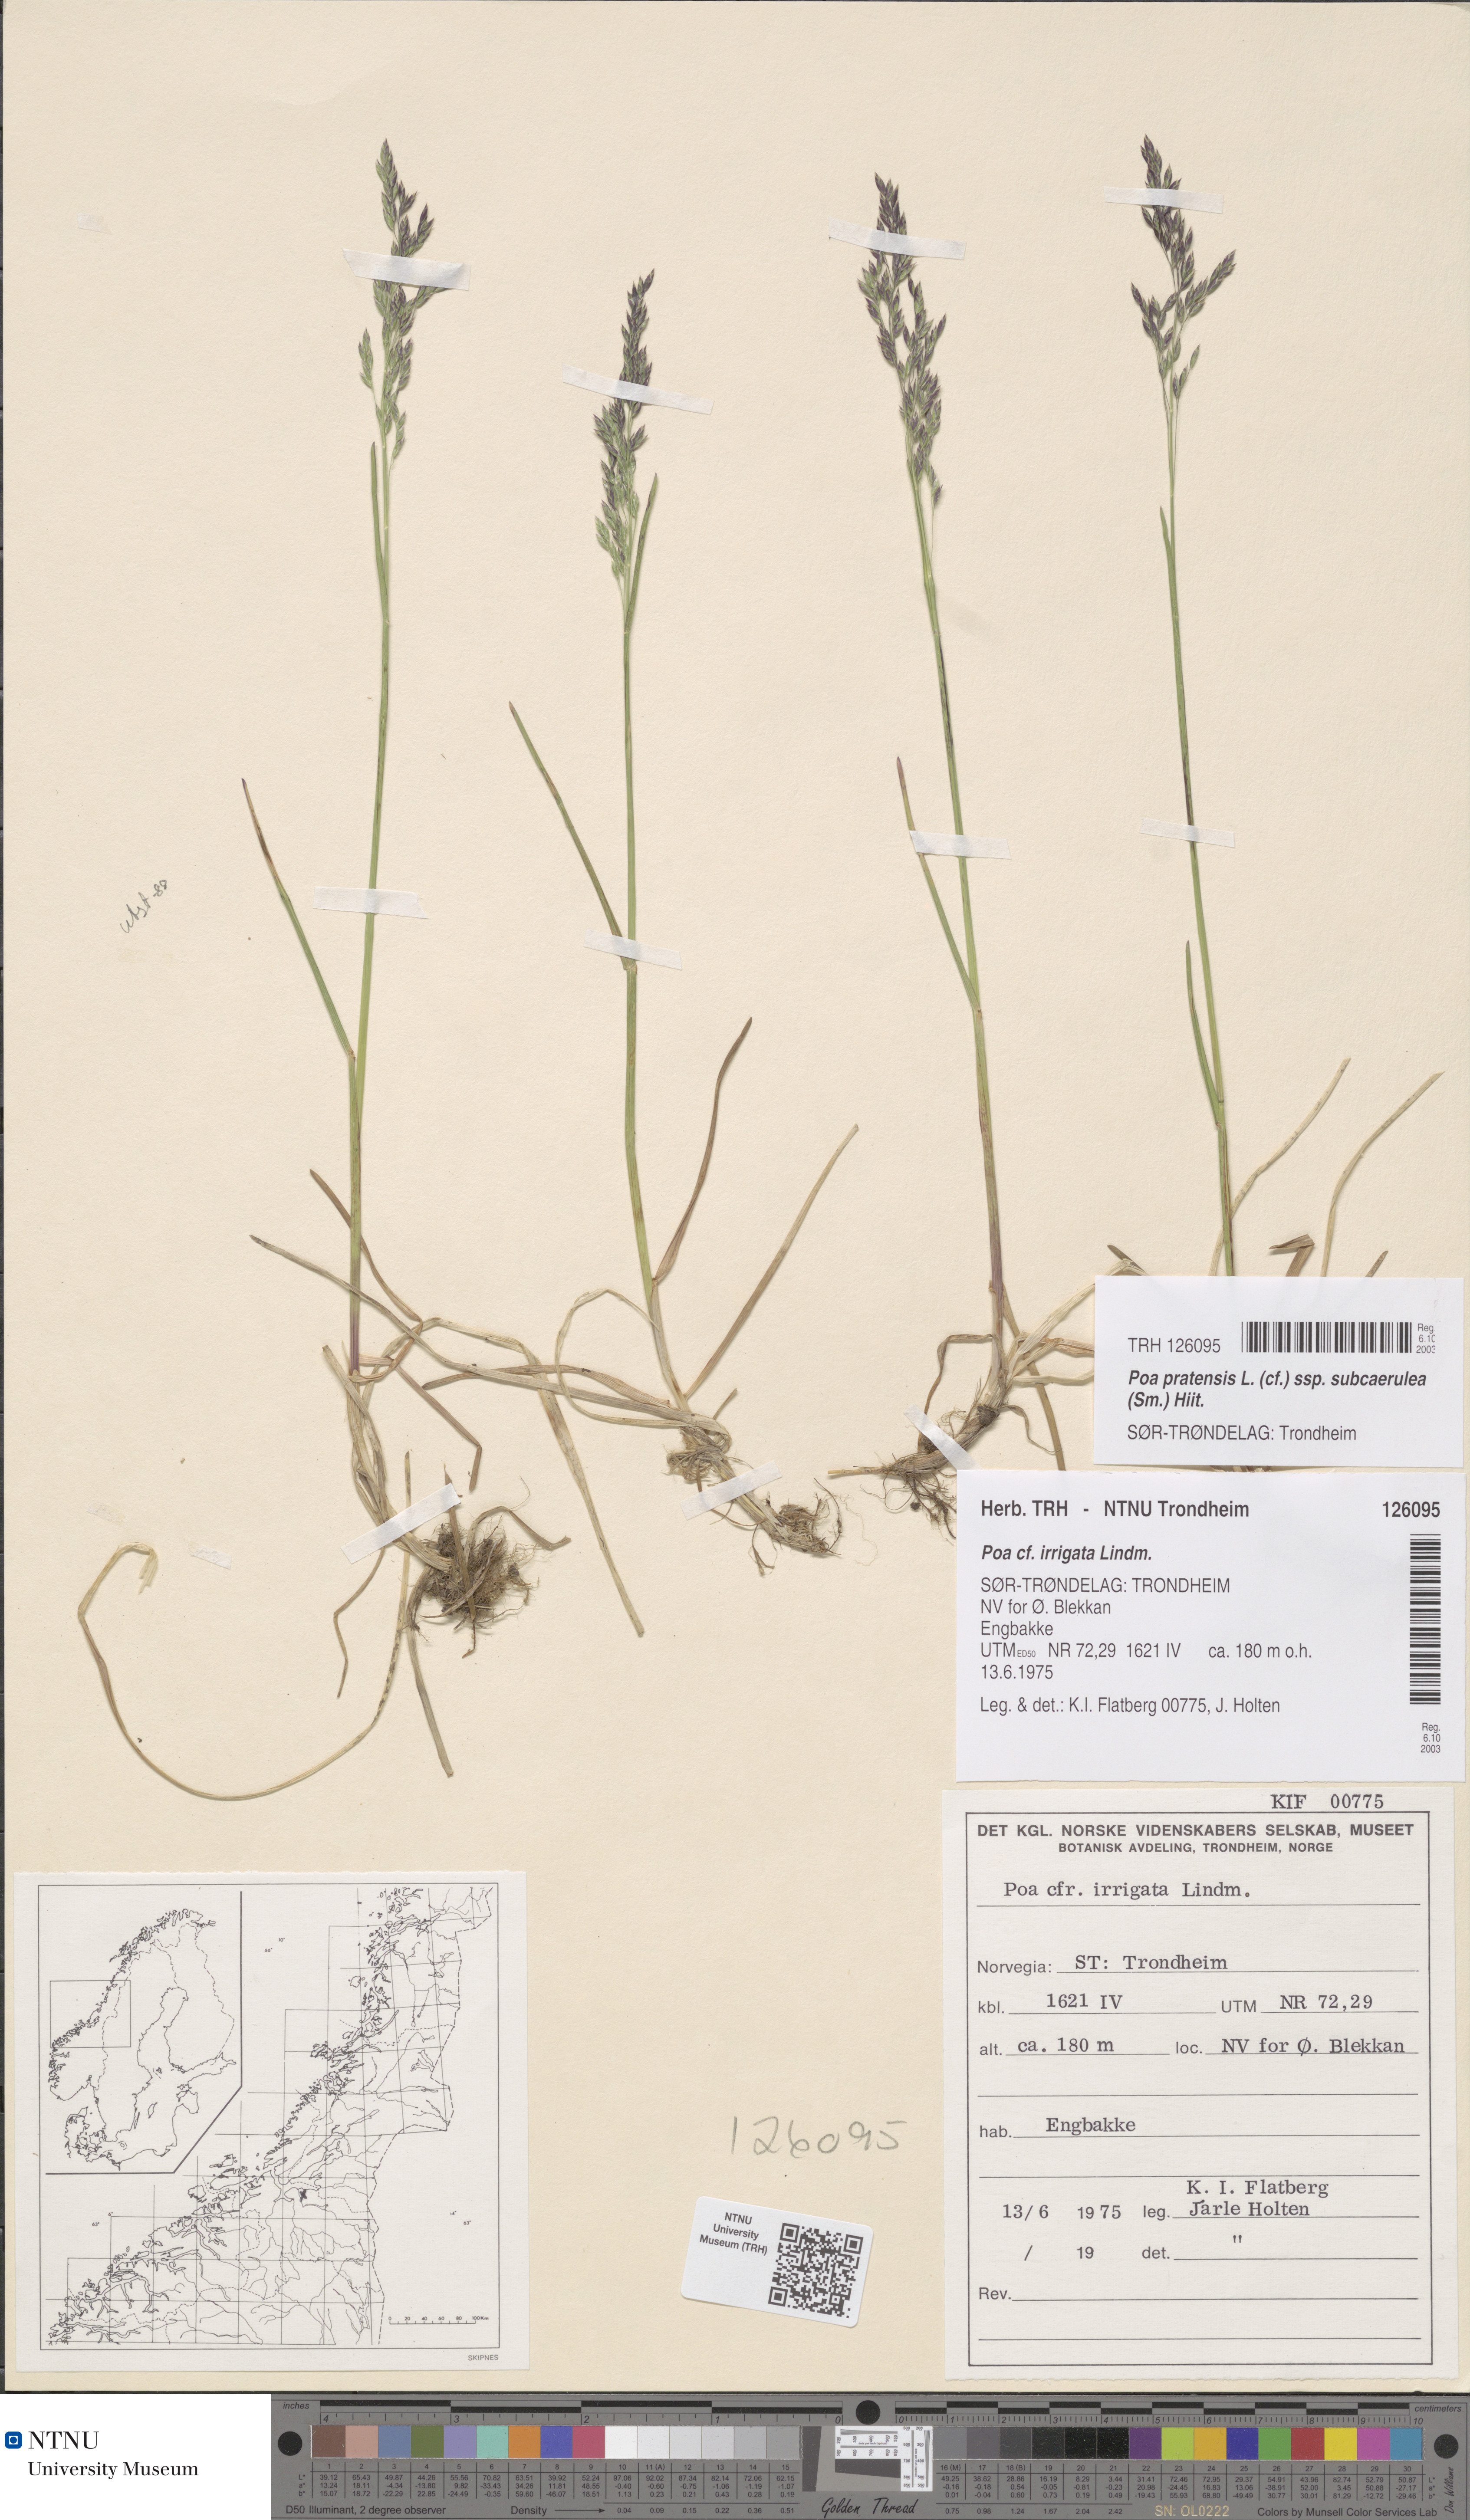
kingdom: Plantae
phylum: Tracheophyta
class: Liliopsida
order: Poales
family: Poaceae
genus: Poa
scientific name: Poa humilis
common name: Spreading meadow-grass
